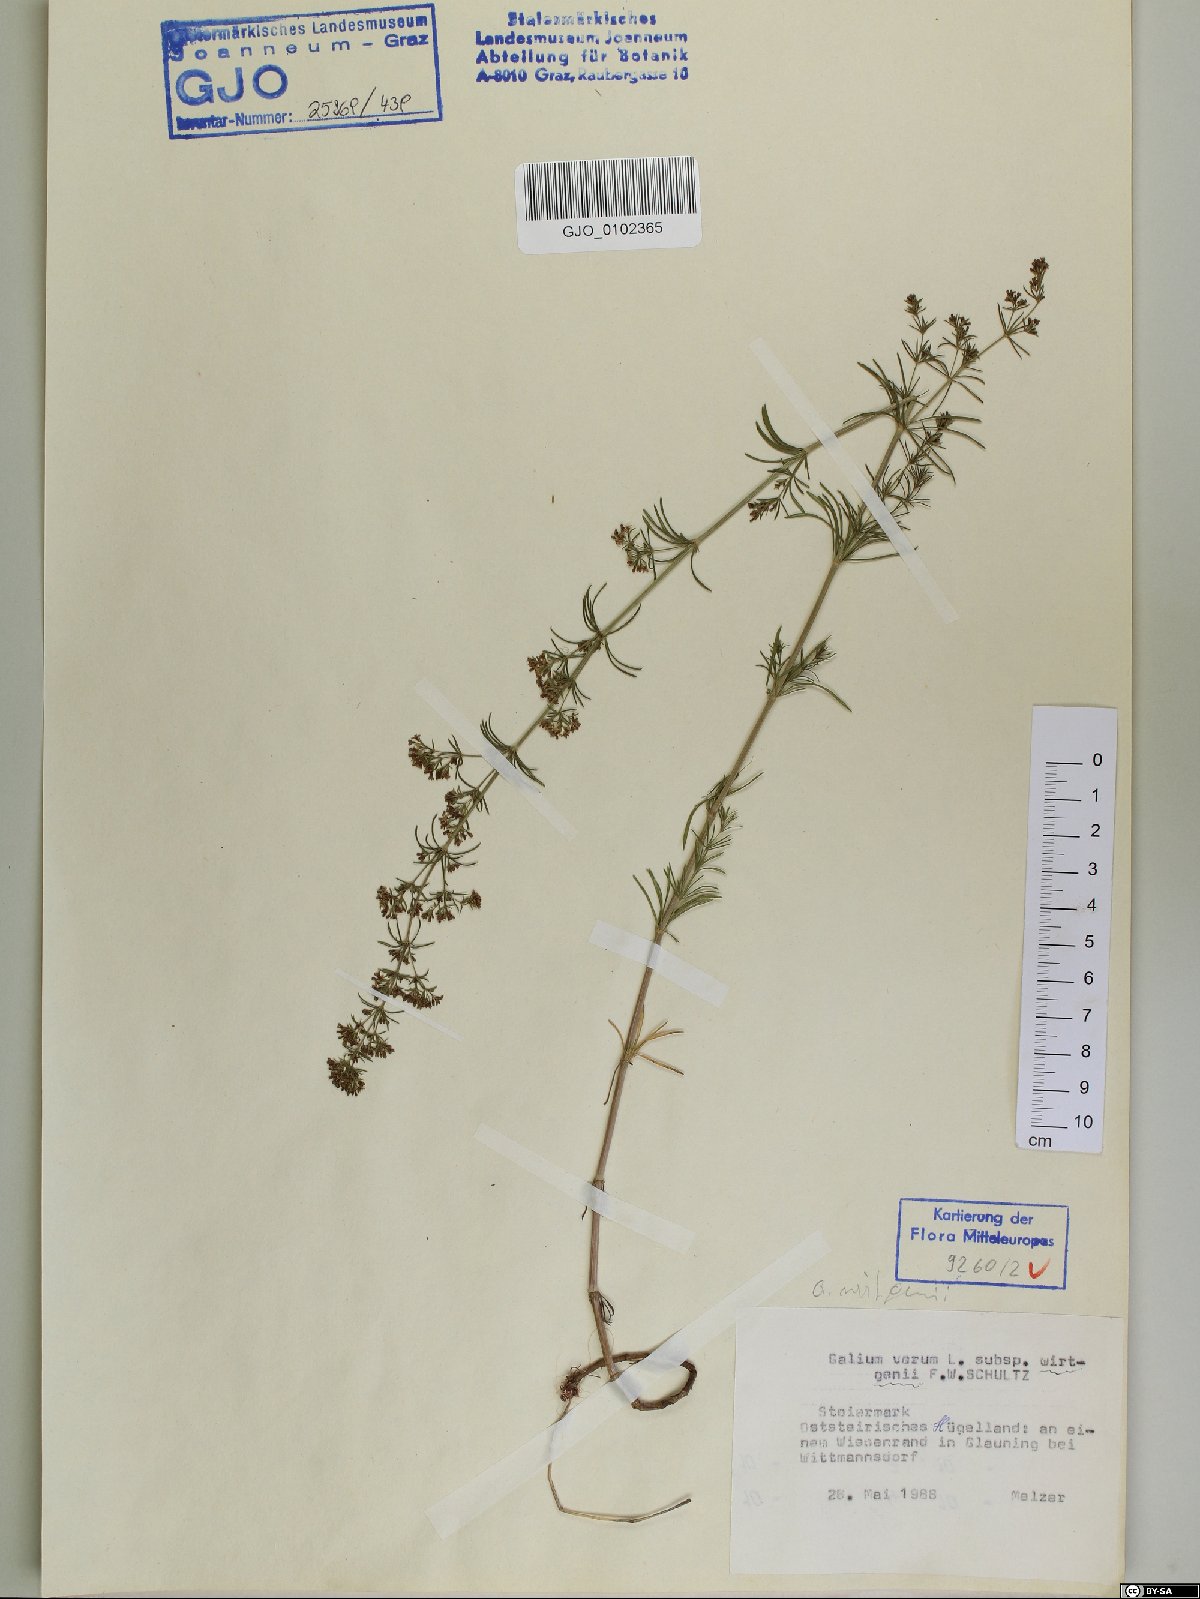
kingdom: Plantae
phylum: Tracheophyta
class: Magnoliopsida
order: Gentianales
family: Rubiaceae
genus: Galium
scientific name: Galium verum
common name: Lady's bedstraw
